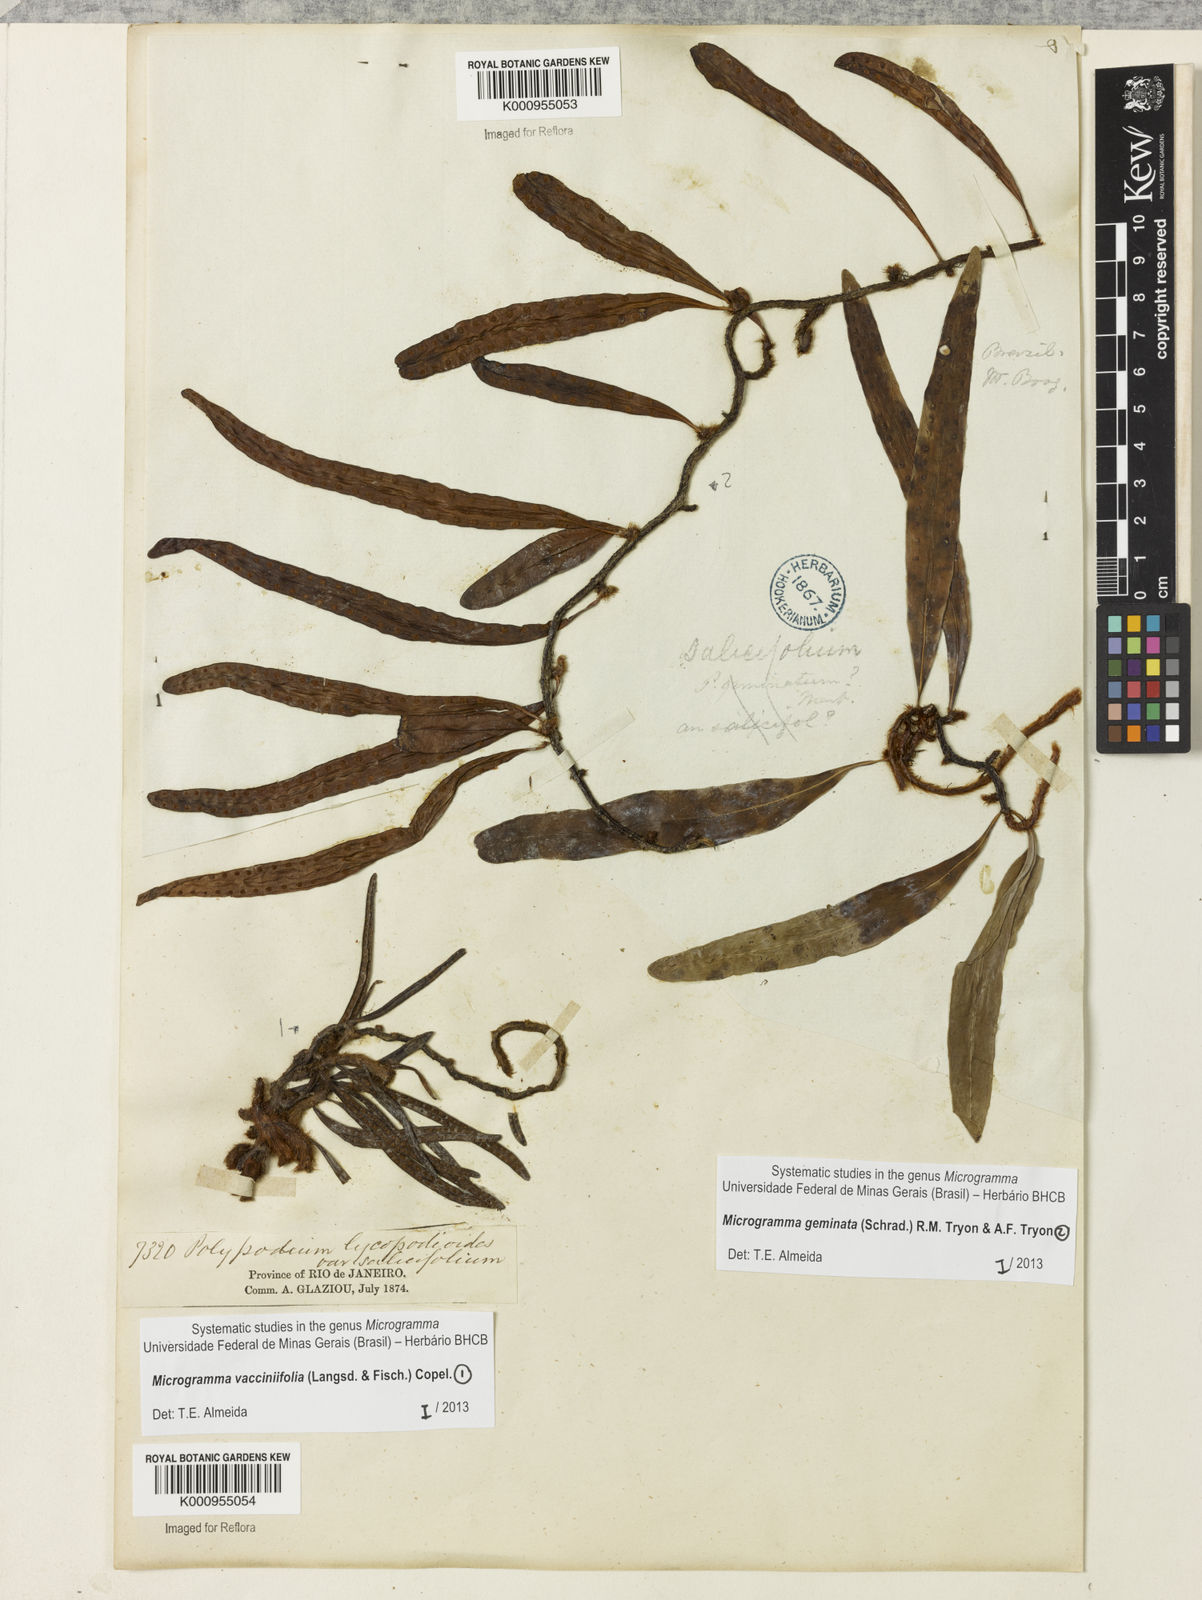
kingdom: Plantae
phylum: Tracheophyta
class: Polypodiopsida
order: Polypodiales
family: Polypodiaceae
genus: Microgramma
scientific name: Microgramma geminata
